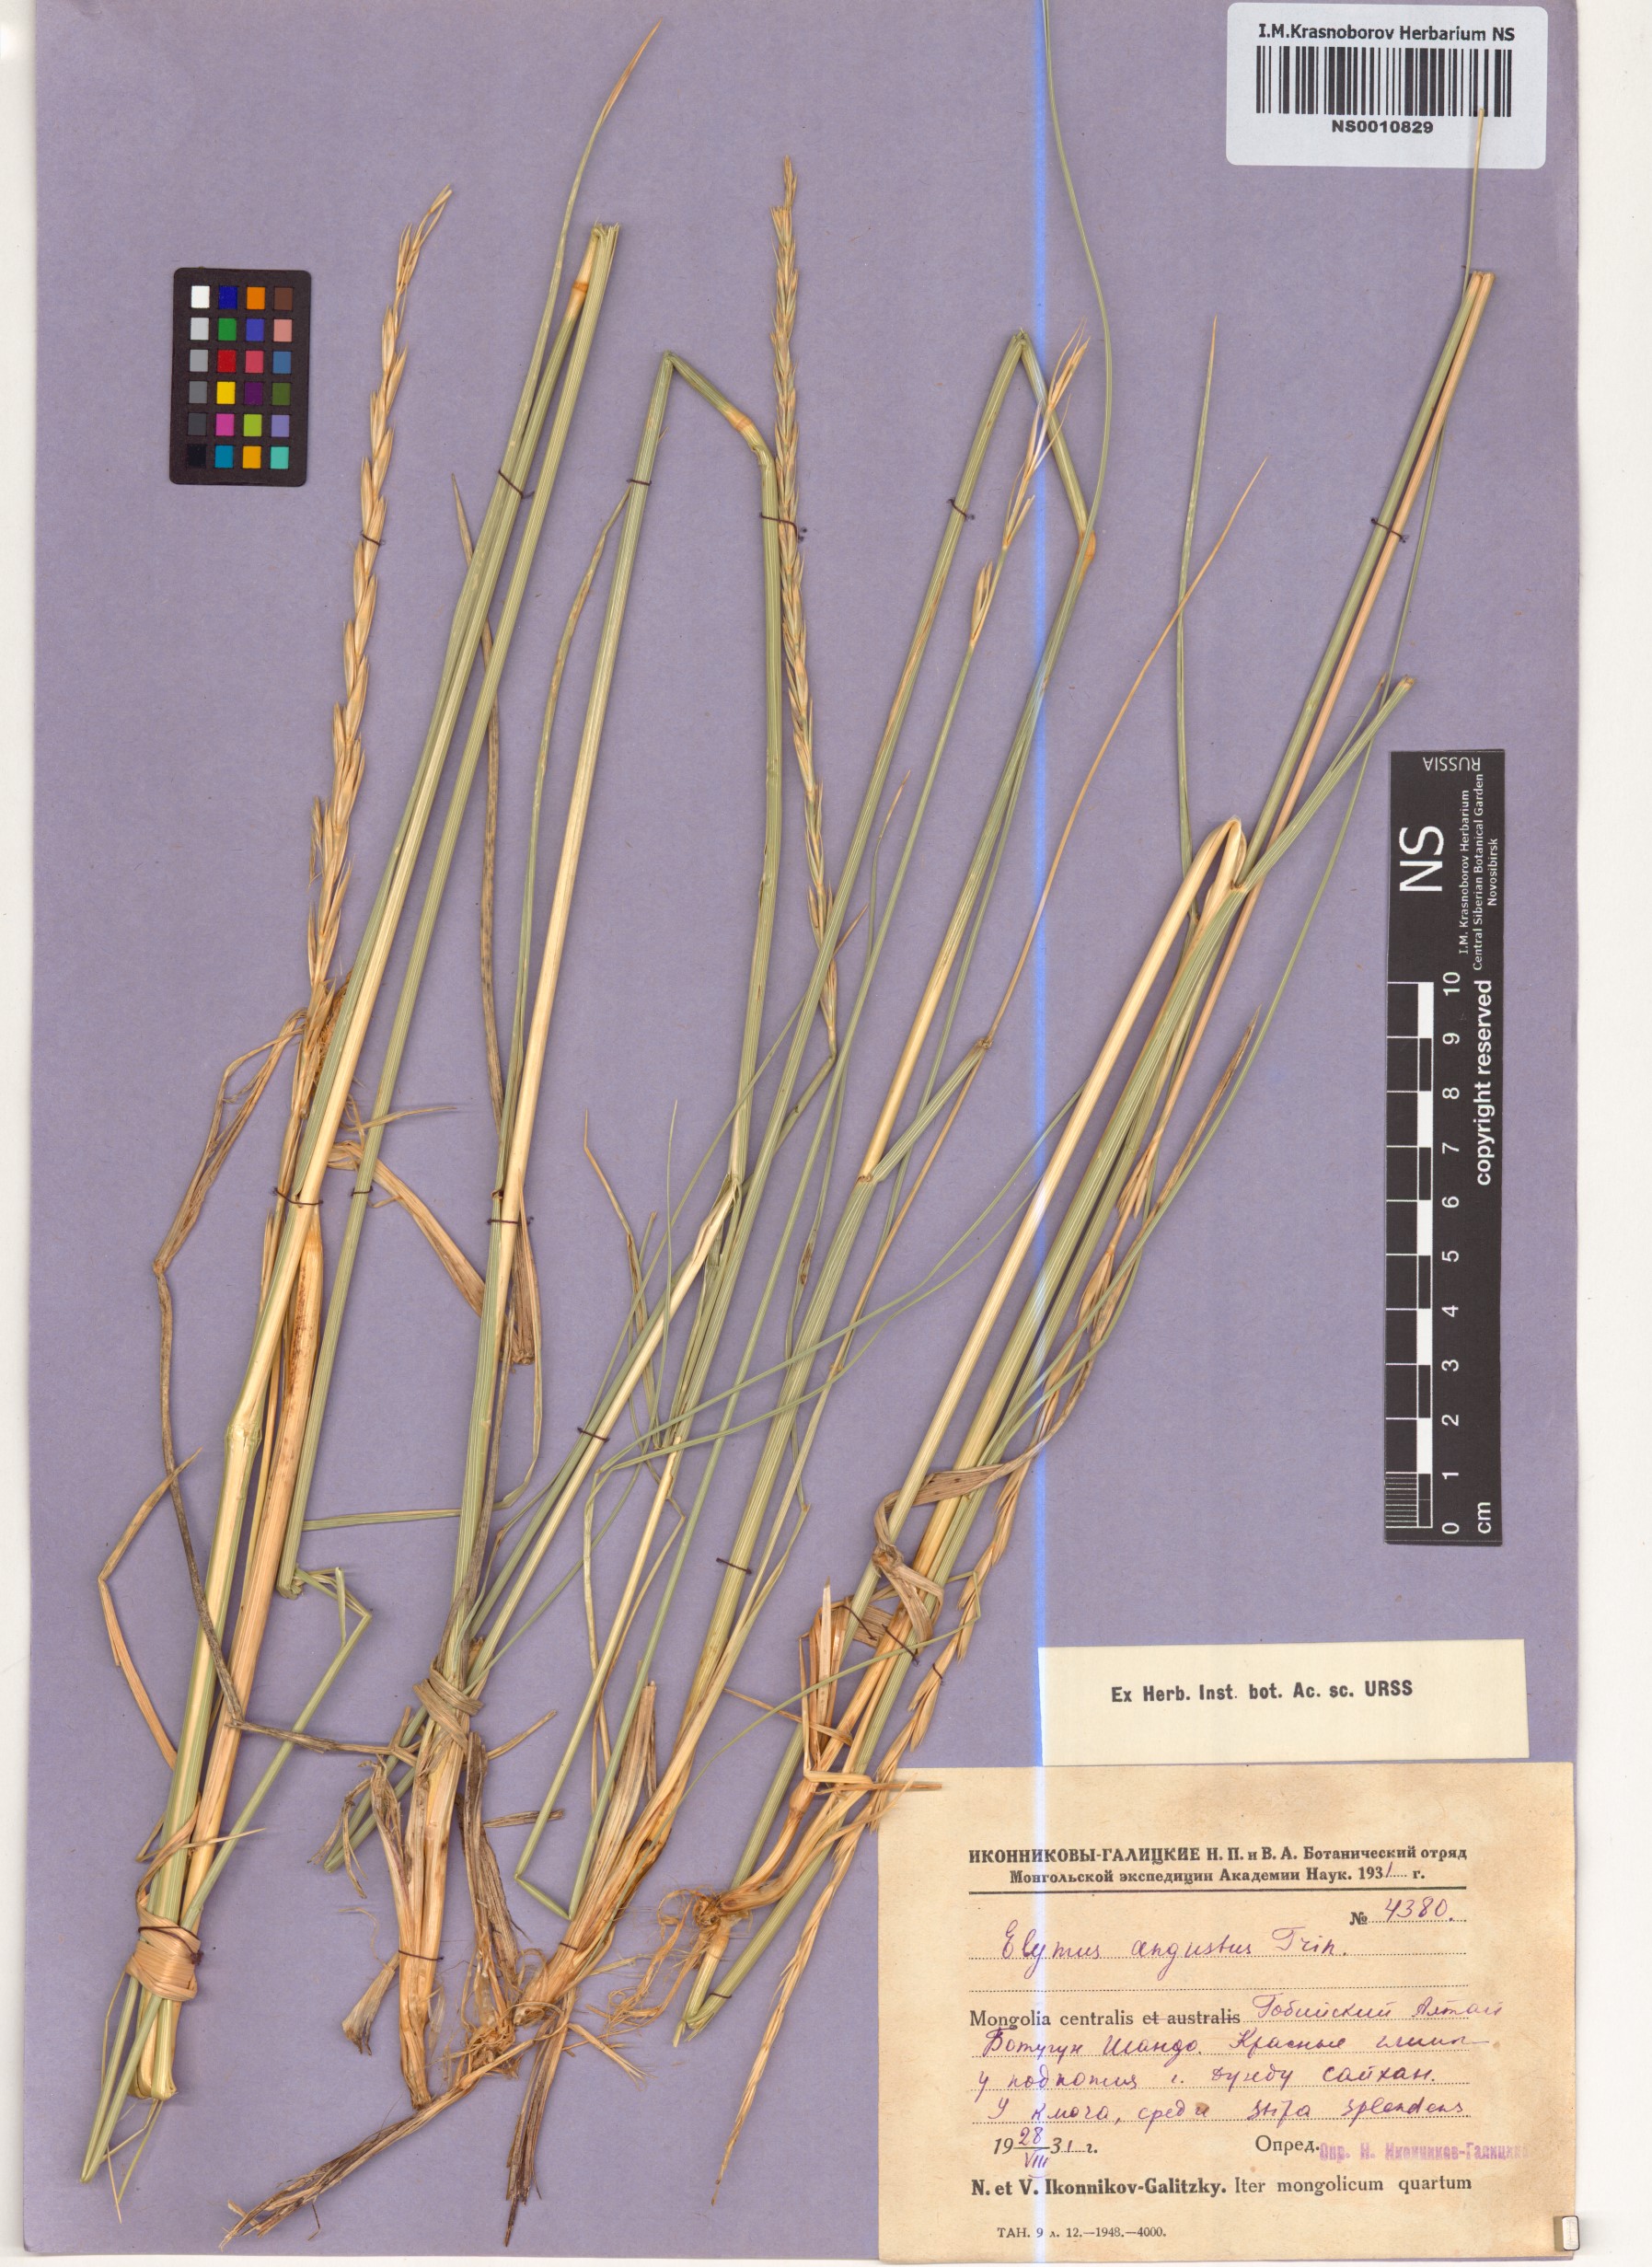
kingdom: Plantae
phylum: Tracheophyta
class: Liliopsida
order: Poales
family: Poaceae
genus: Leymus
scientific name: Leymus angustus
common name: Altai wildrye
